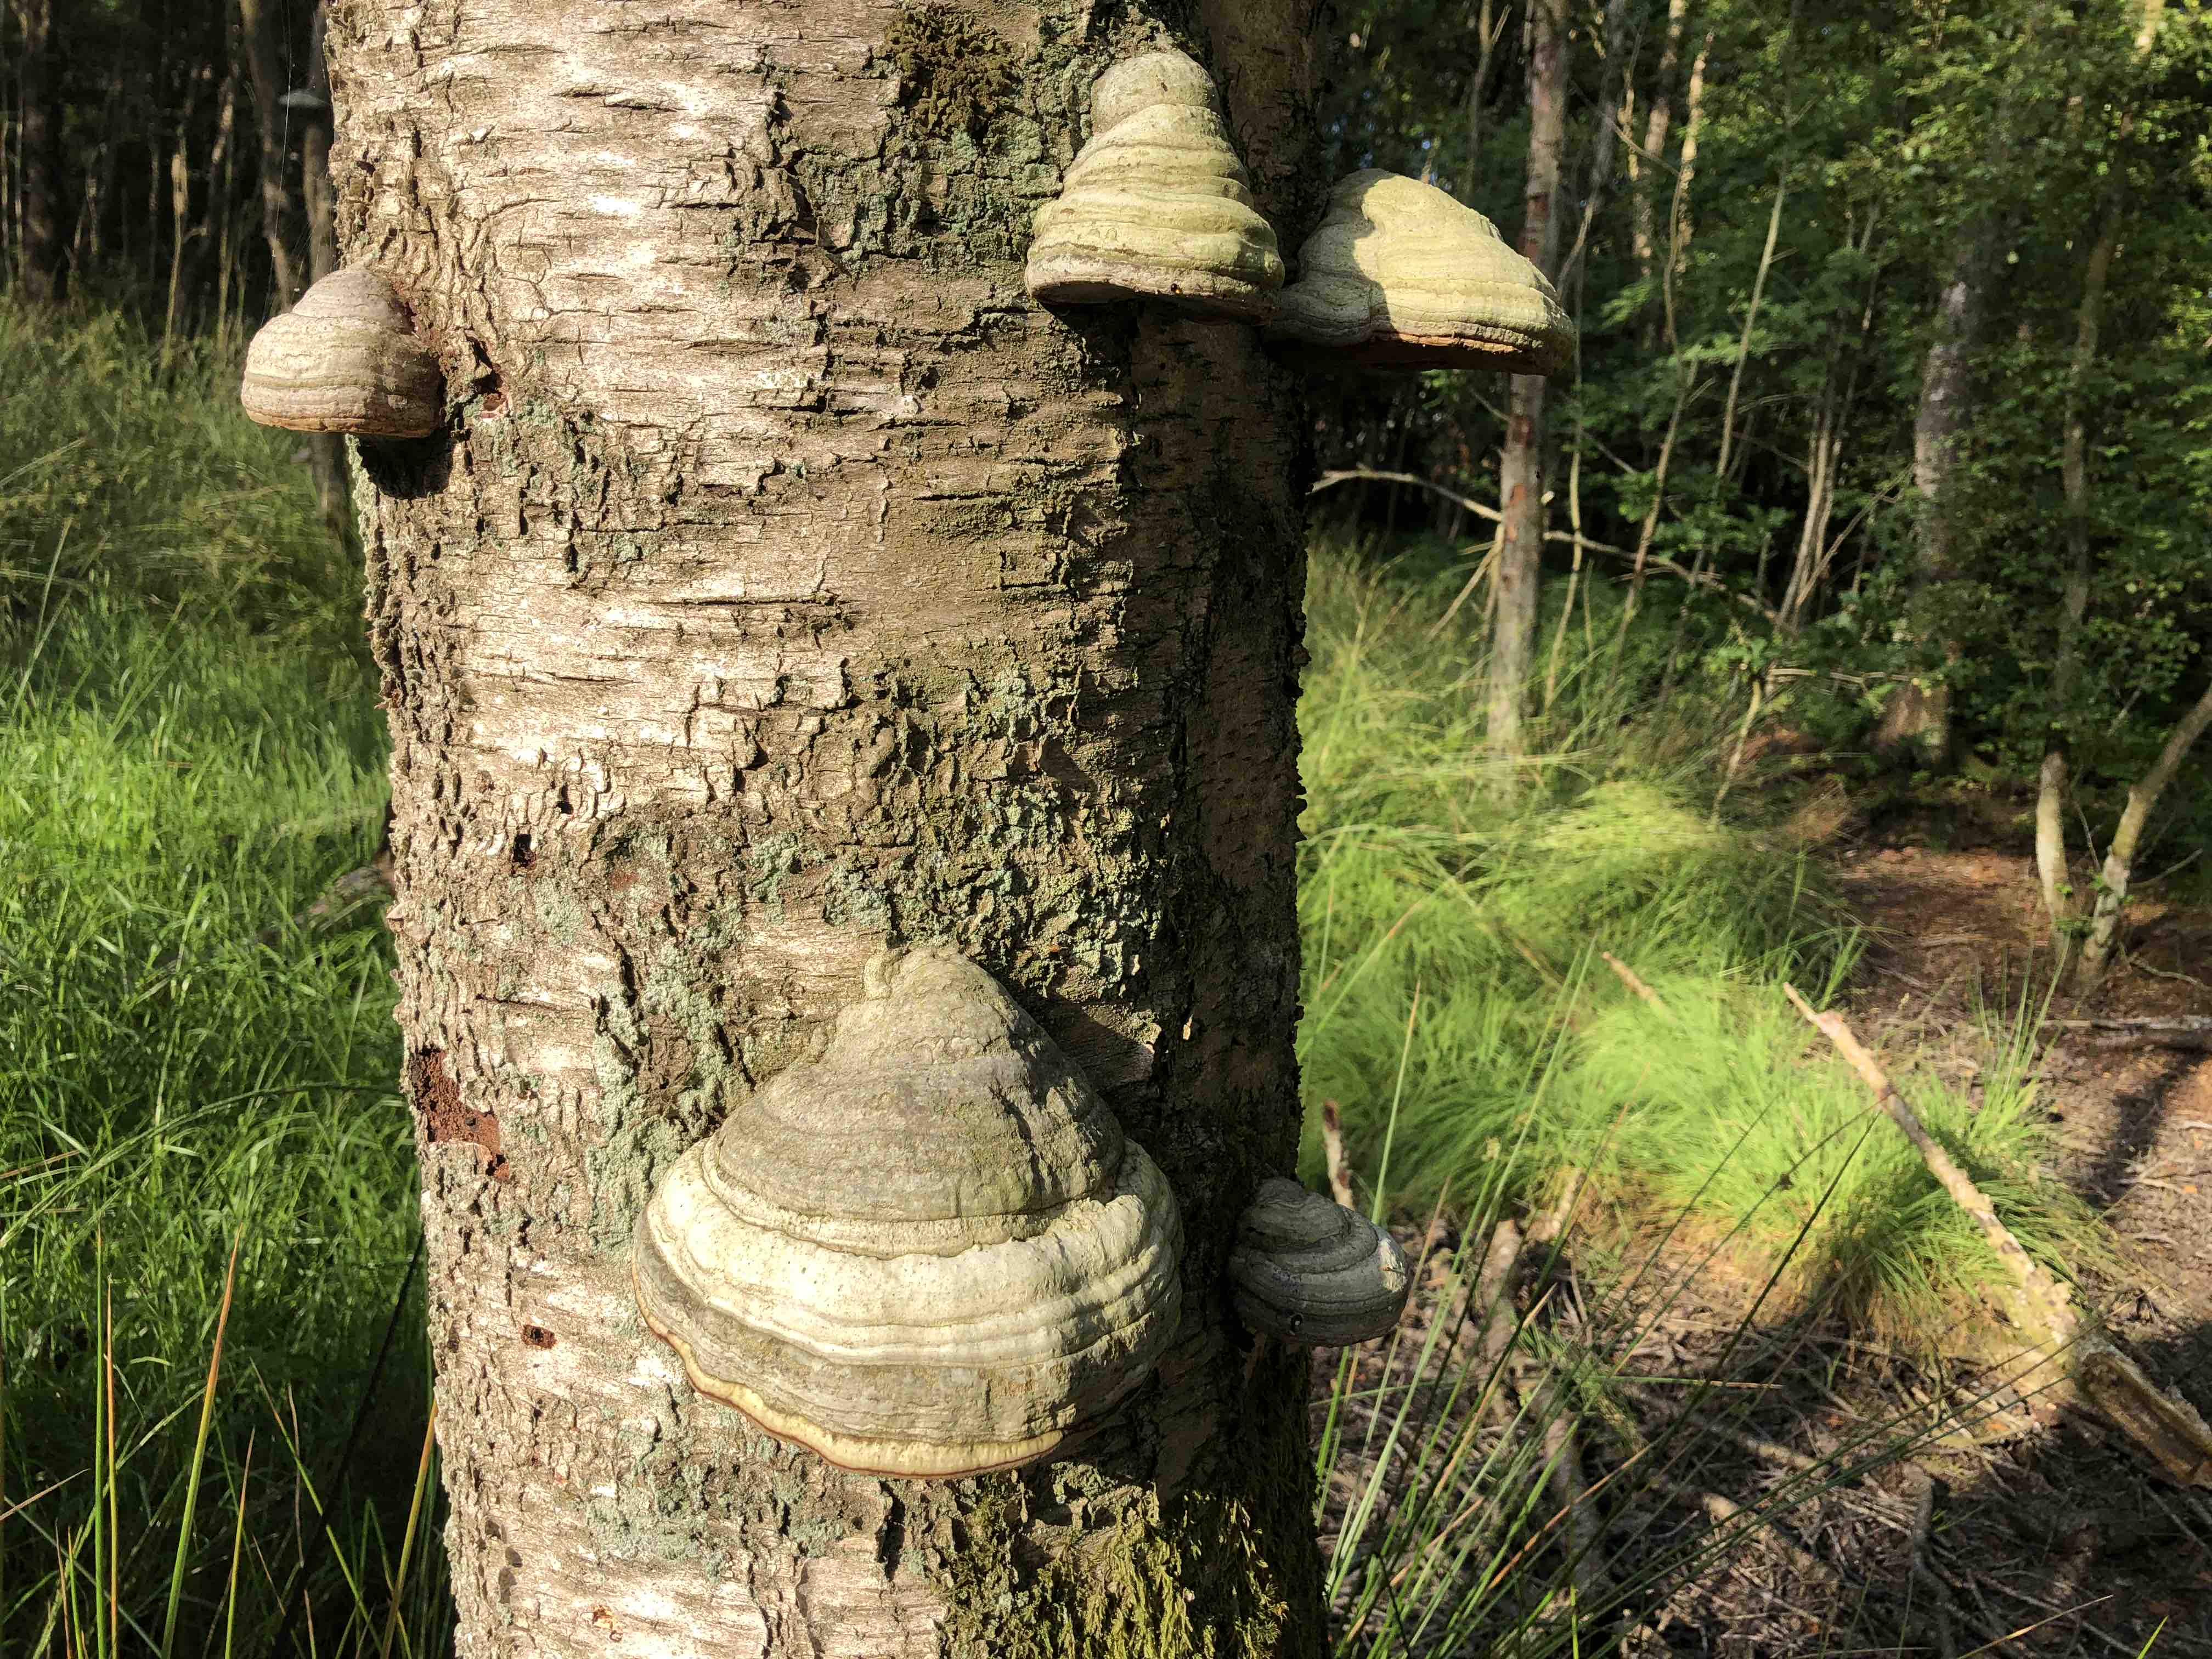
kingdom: Fungi
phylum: Basidiomycota
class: Agaricomycetes
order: Polyporales
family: Polyporaceae
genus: Fomes
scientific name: Fomes fomentarius
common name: tøndersvamp
